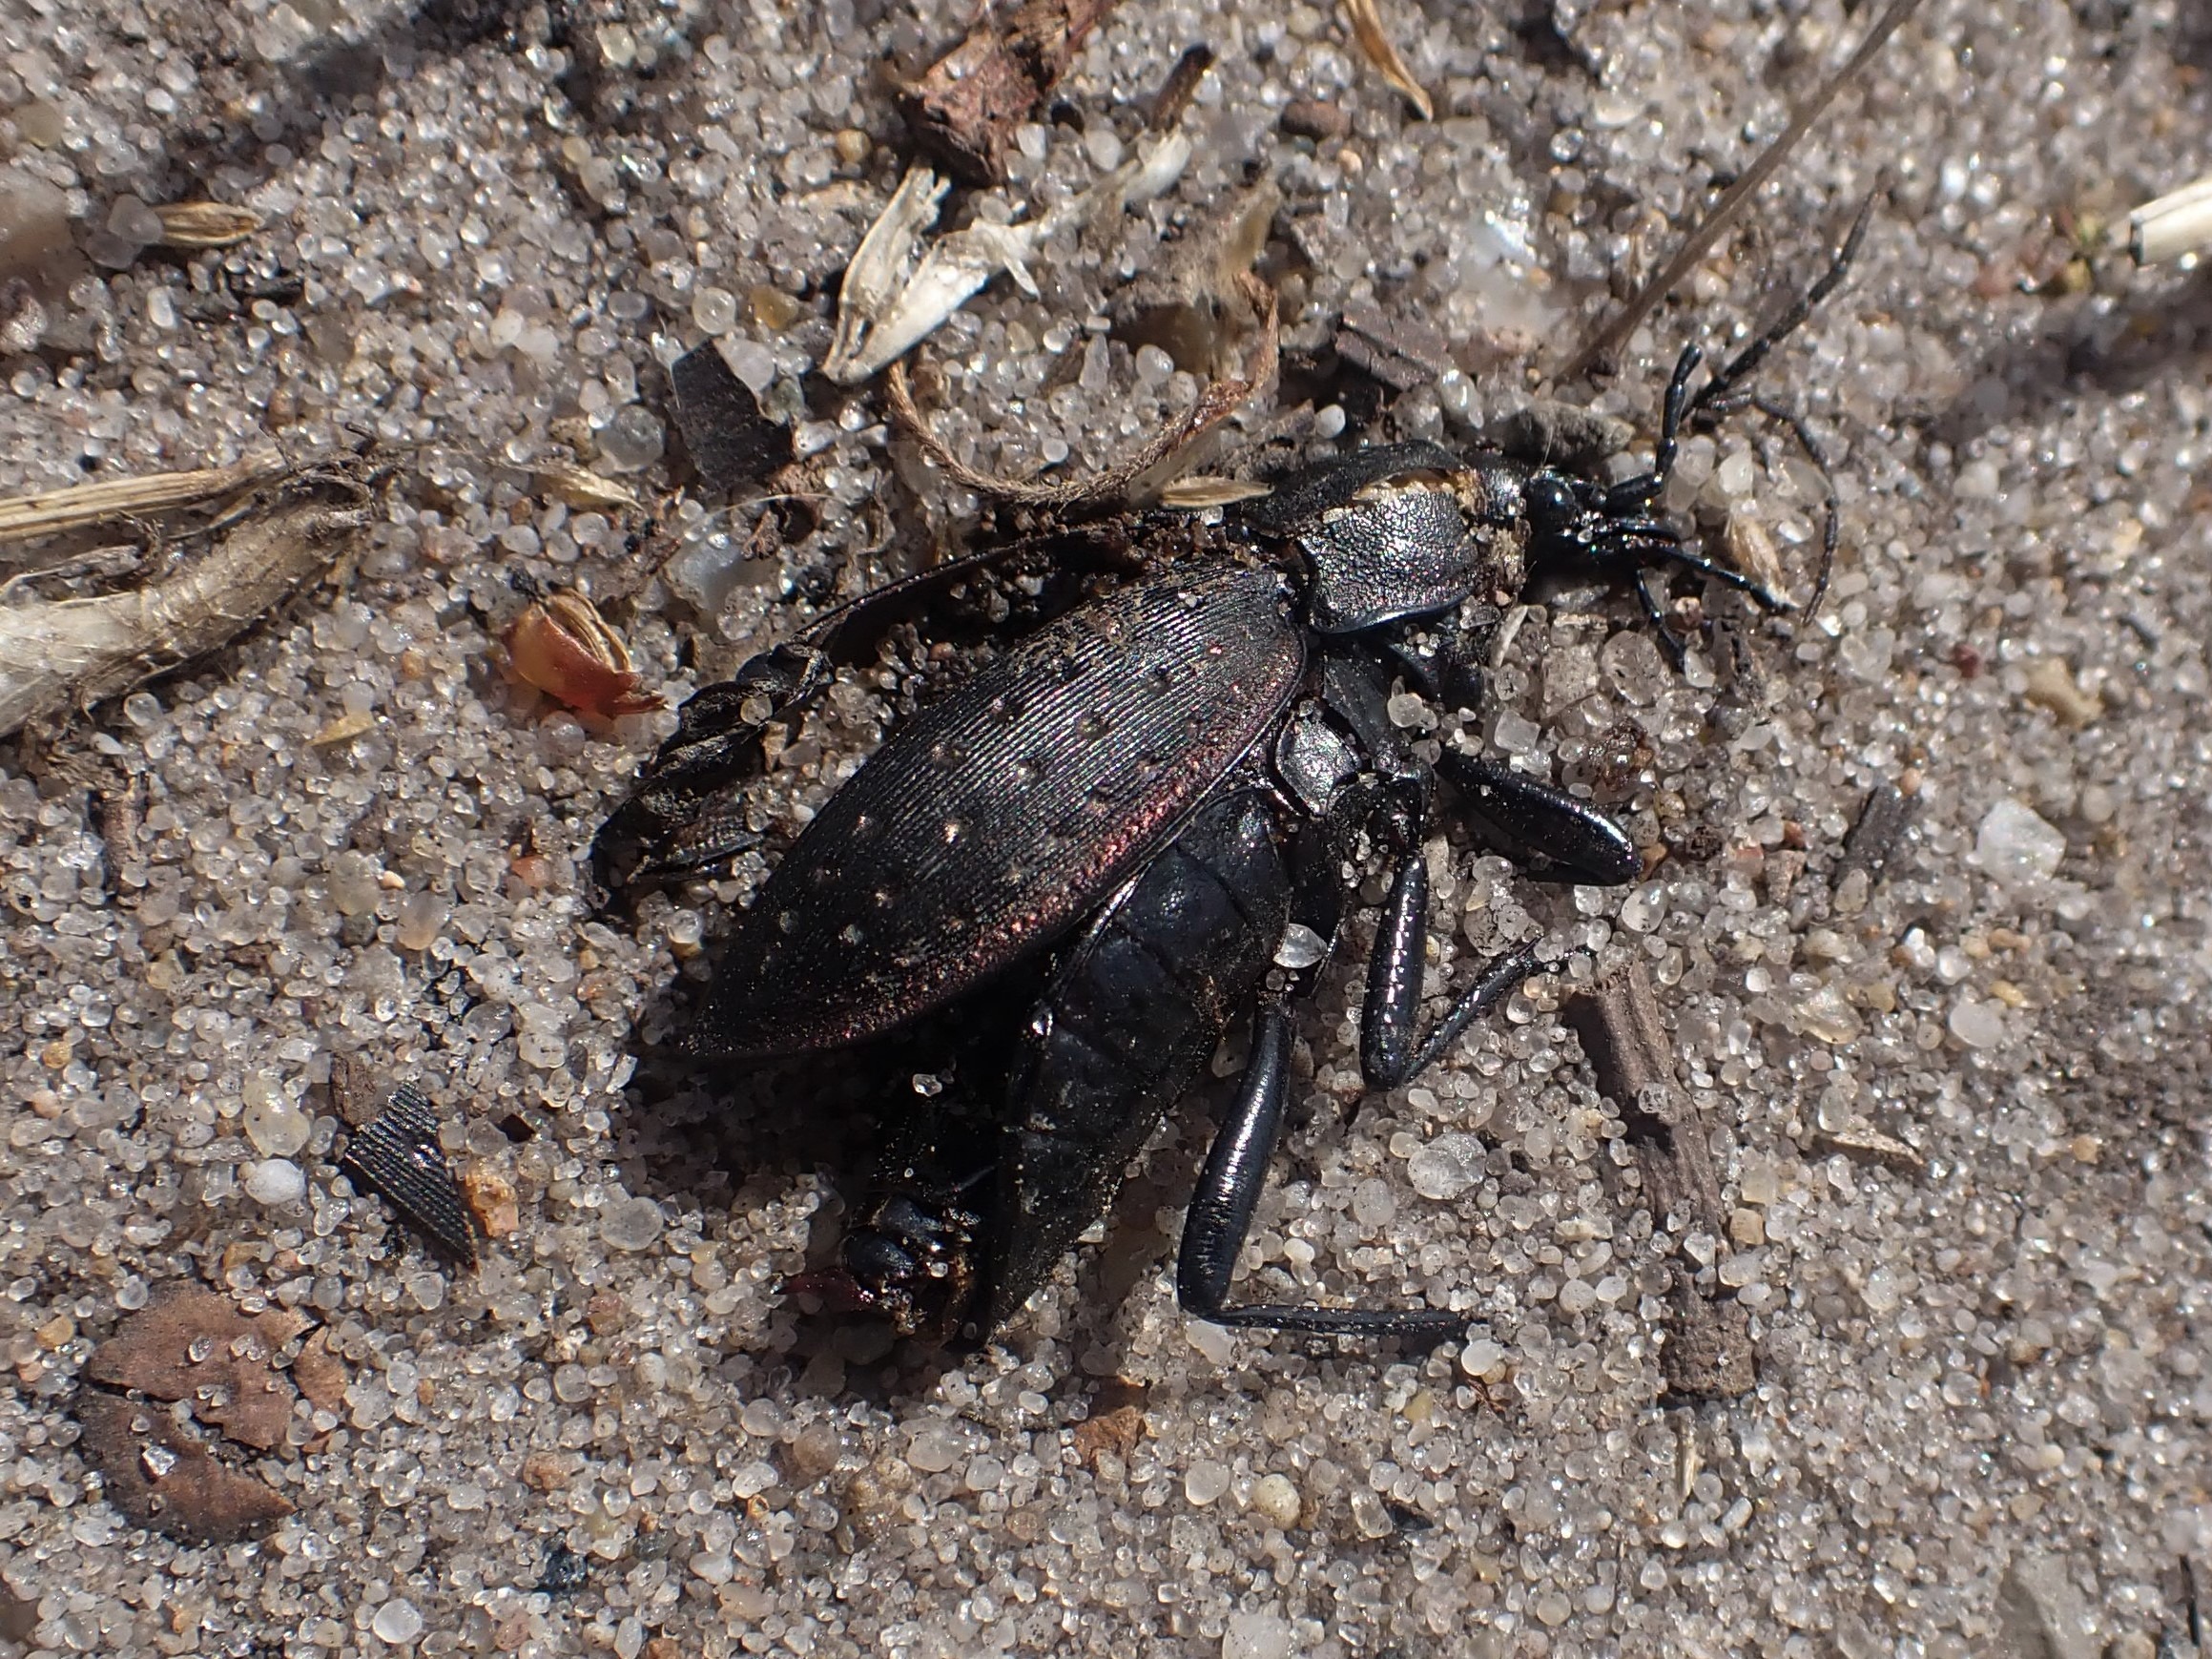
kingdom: Animalia
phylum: Arthropoda
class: Insecta
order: Coleoptera
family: Carabidae
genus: Carabus
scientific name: Carabus hortensis
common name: Guldpletløber
